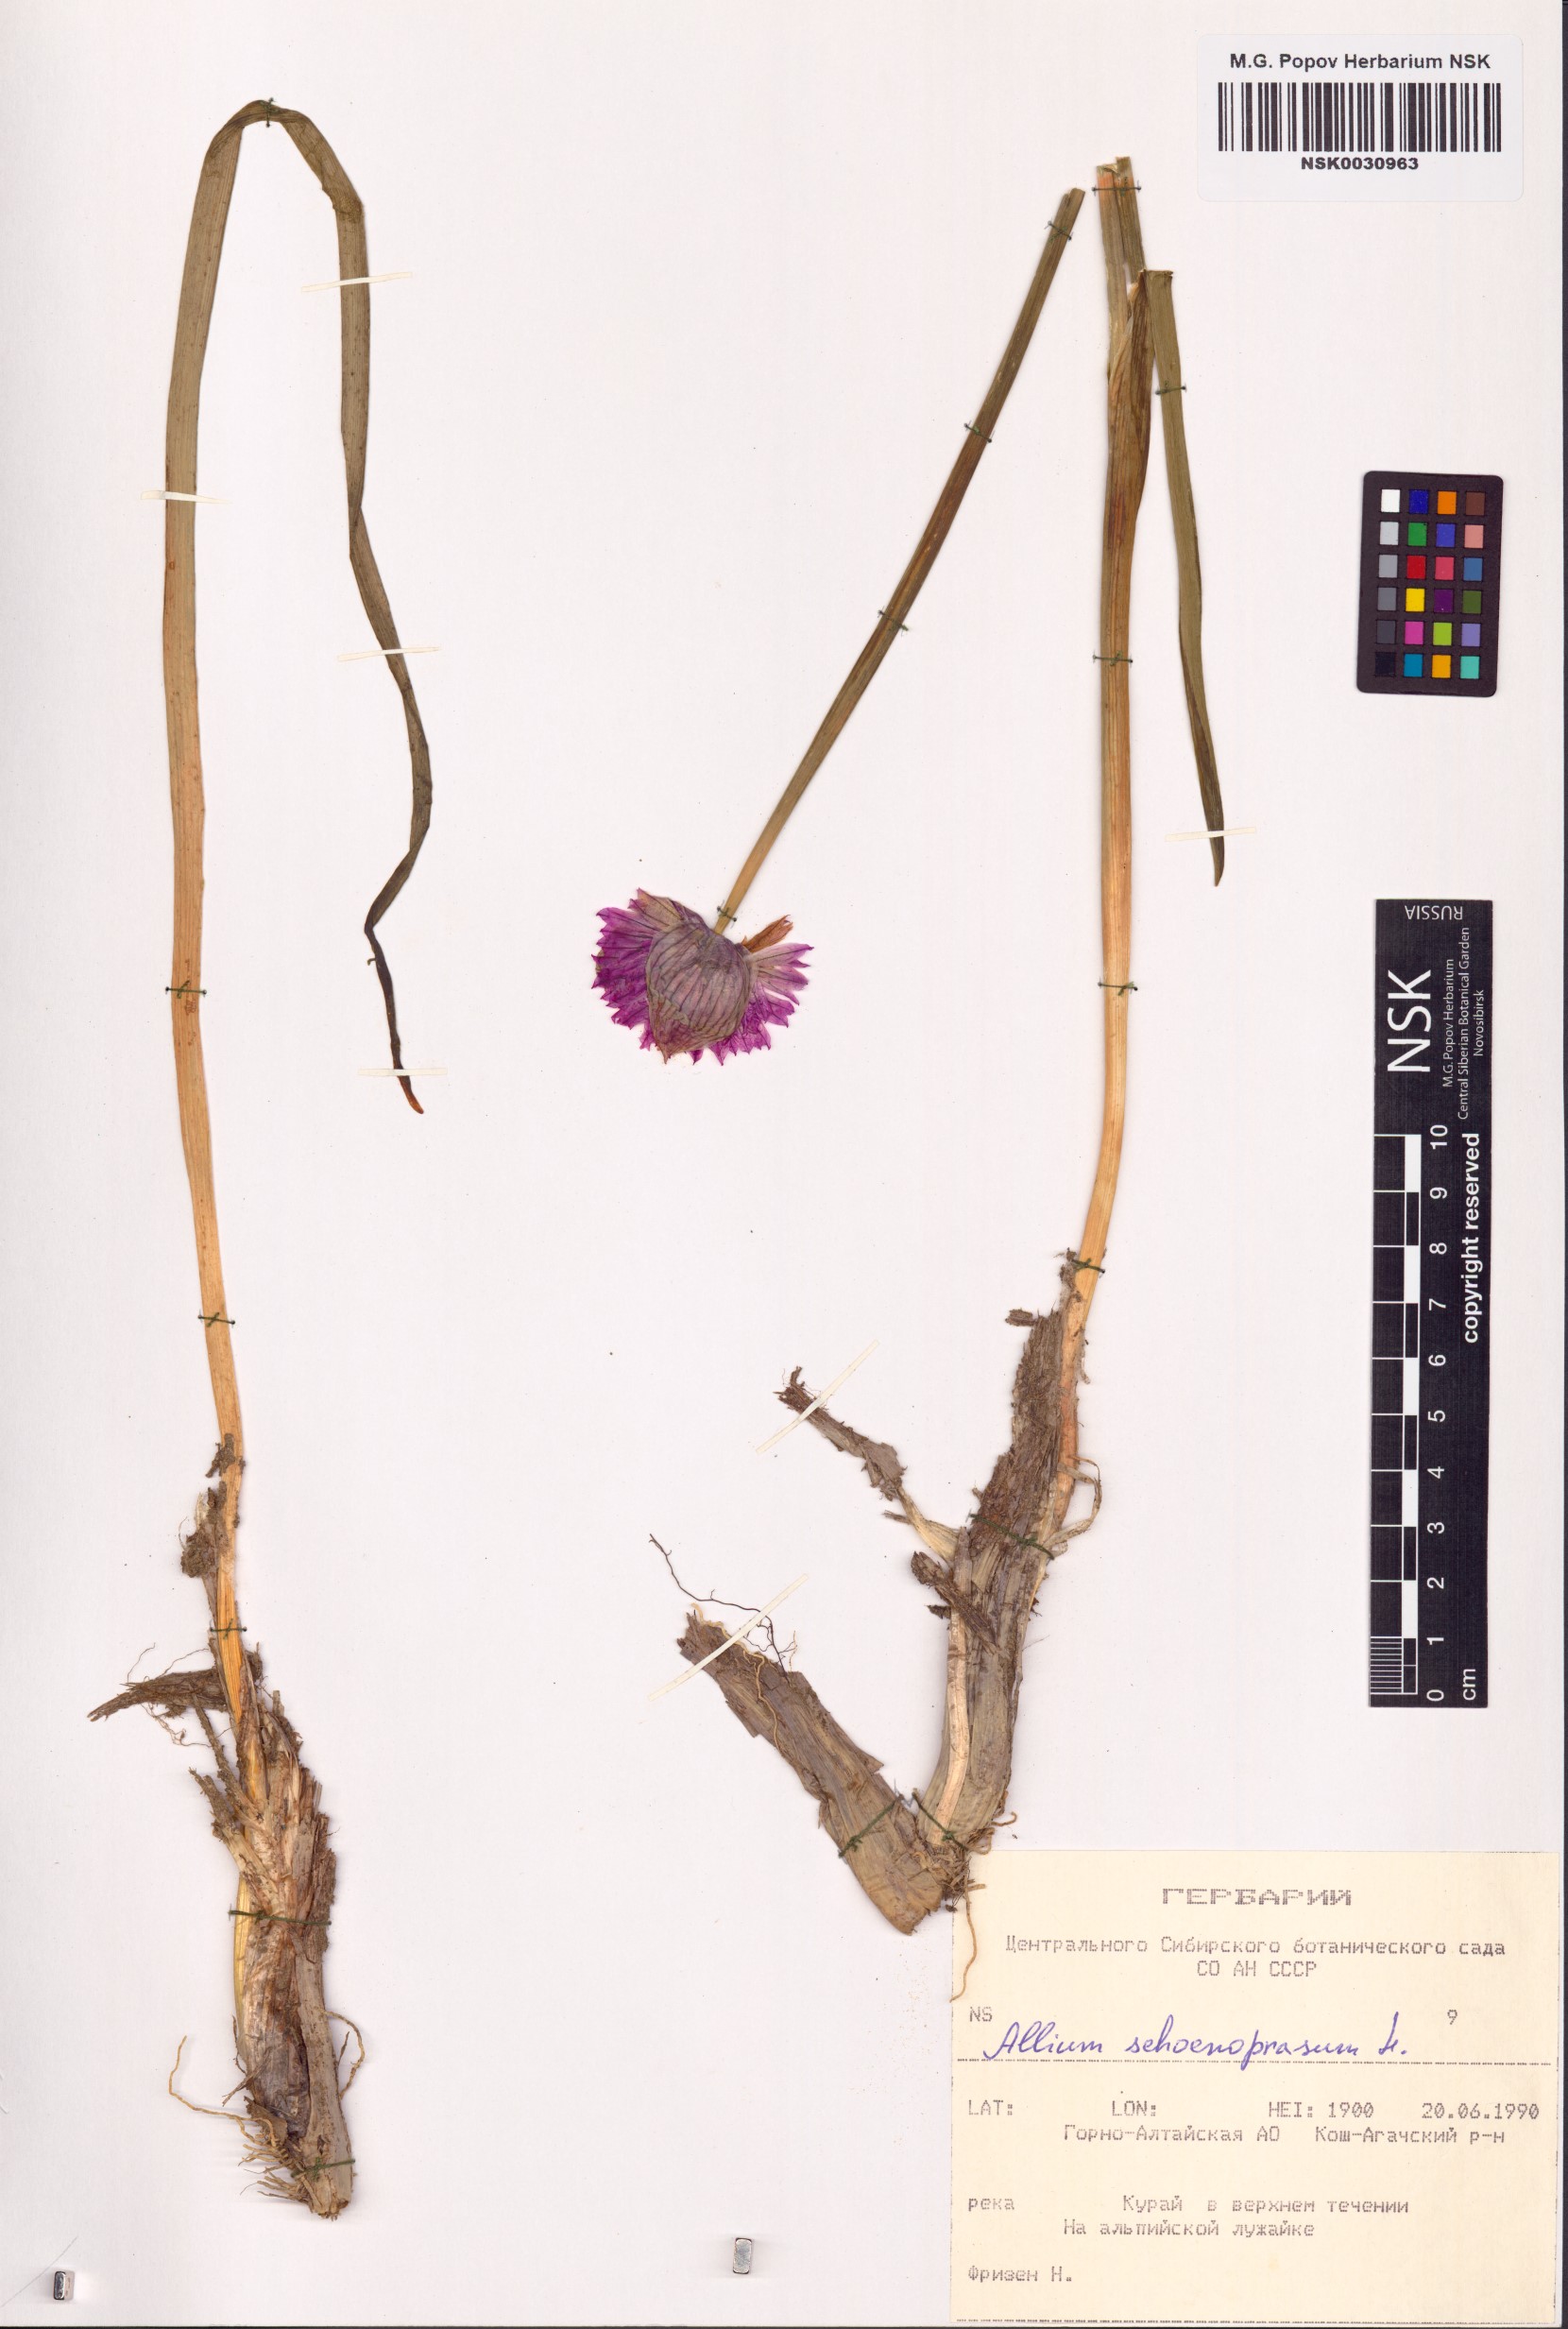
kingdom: Plantae
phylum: Tracheophyta
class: Liliopsida
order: Asparagales
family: Amaryllidaceae
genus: Allium
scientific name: Allium schoenoprasum
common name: Chives
